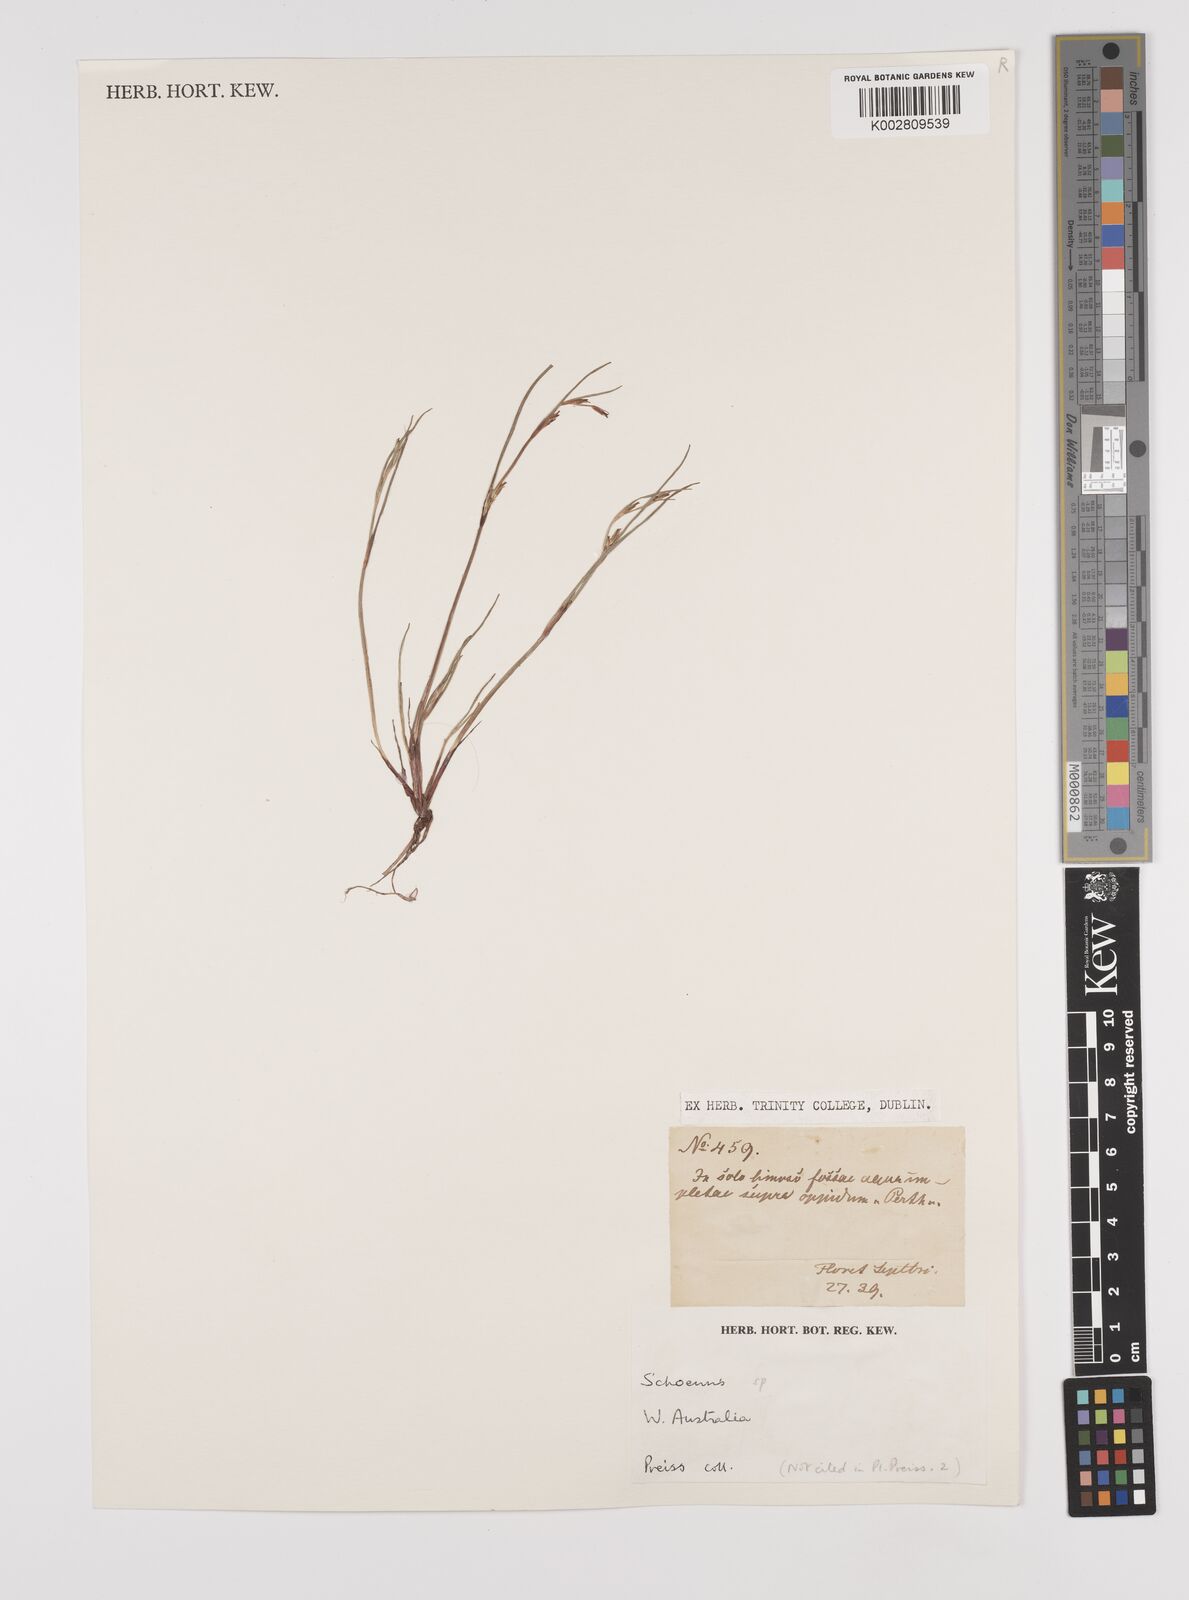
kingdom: Plantae
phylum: Tracheophyta
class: Liliopsida
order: Poales
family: Cyperaceae
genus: Schoenus
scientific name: Schoenus
